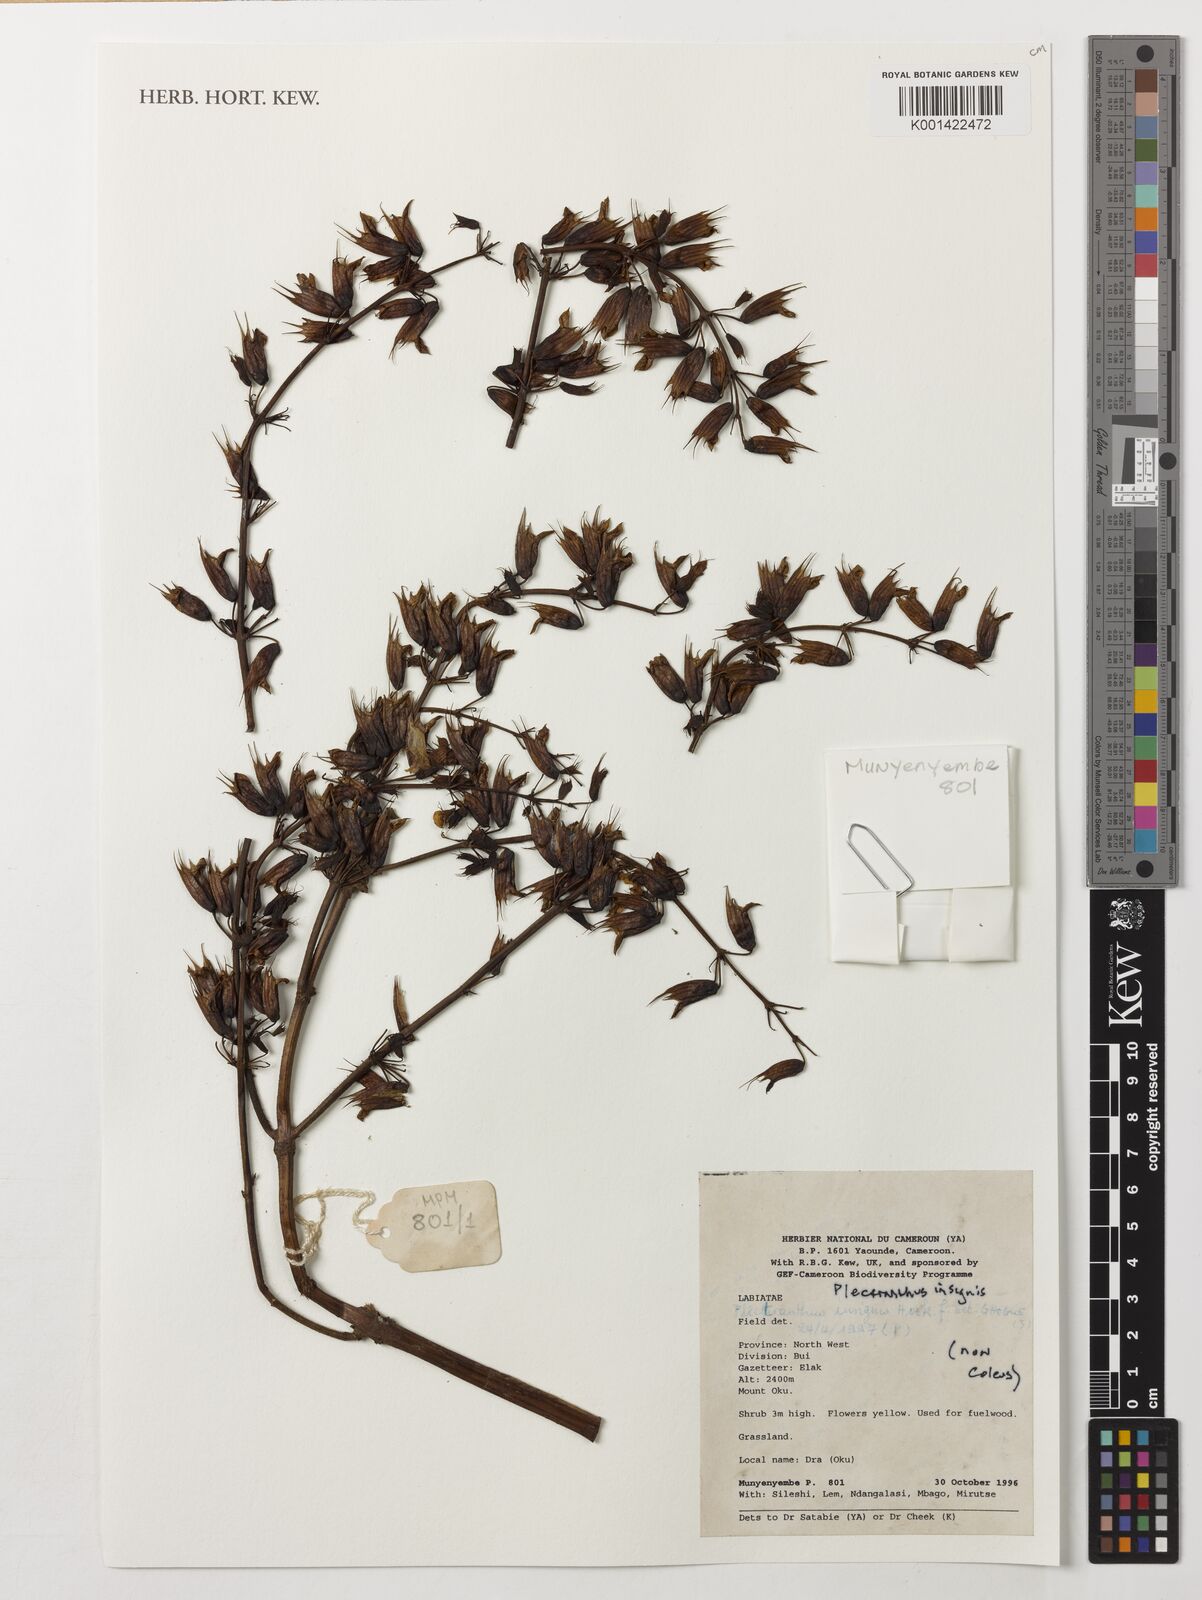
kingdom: Plantae
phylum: Tracheophyta
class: Magnoliopsida
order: Lamiales
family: Lamiaceae
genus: Coleus
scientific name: Coleus insignis
